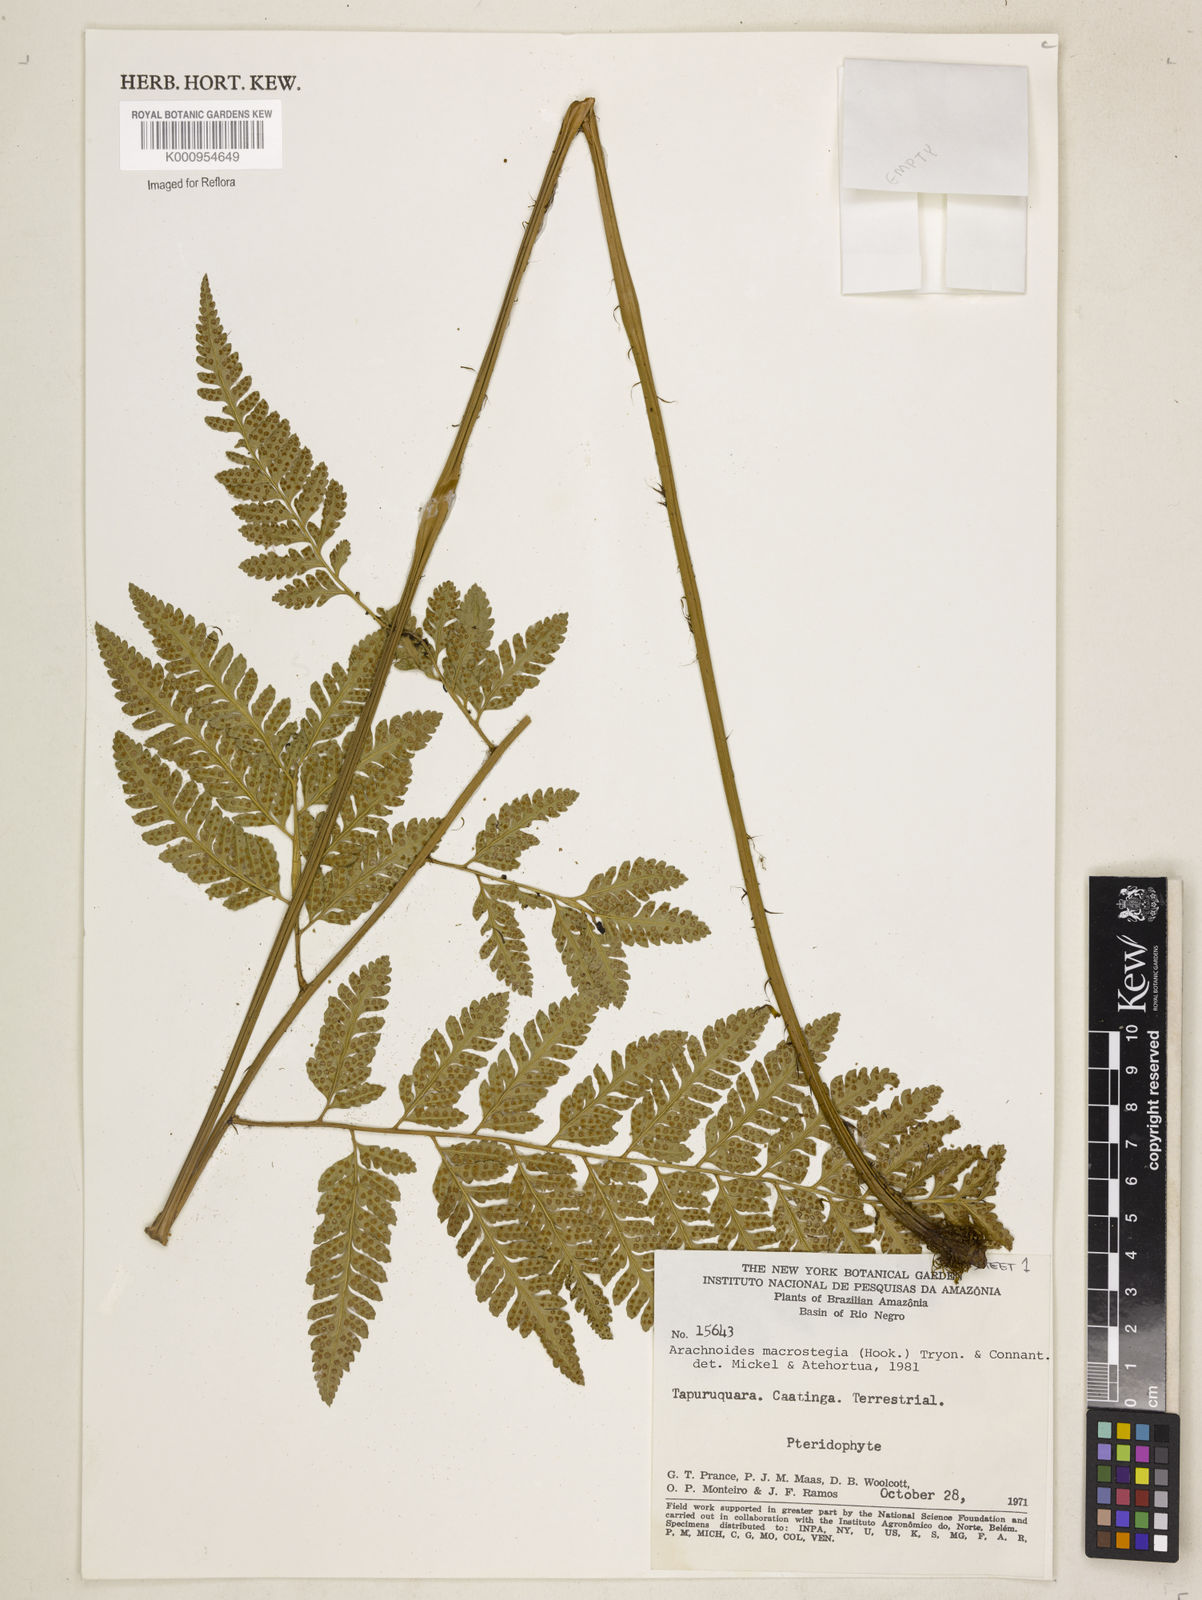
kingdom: Plantae
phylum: Tracheophyta
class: Polypodiopsida
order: Polypodiales
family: Dryopteridaceae
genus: Olfersia
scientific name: Olfersia macrostegia
